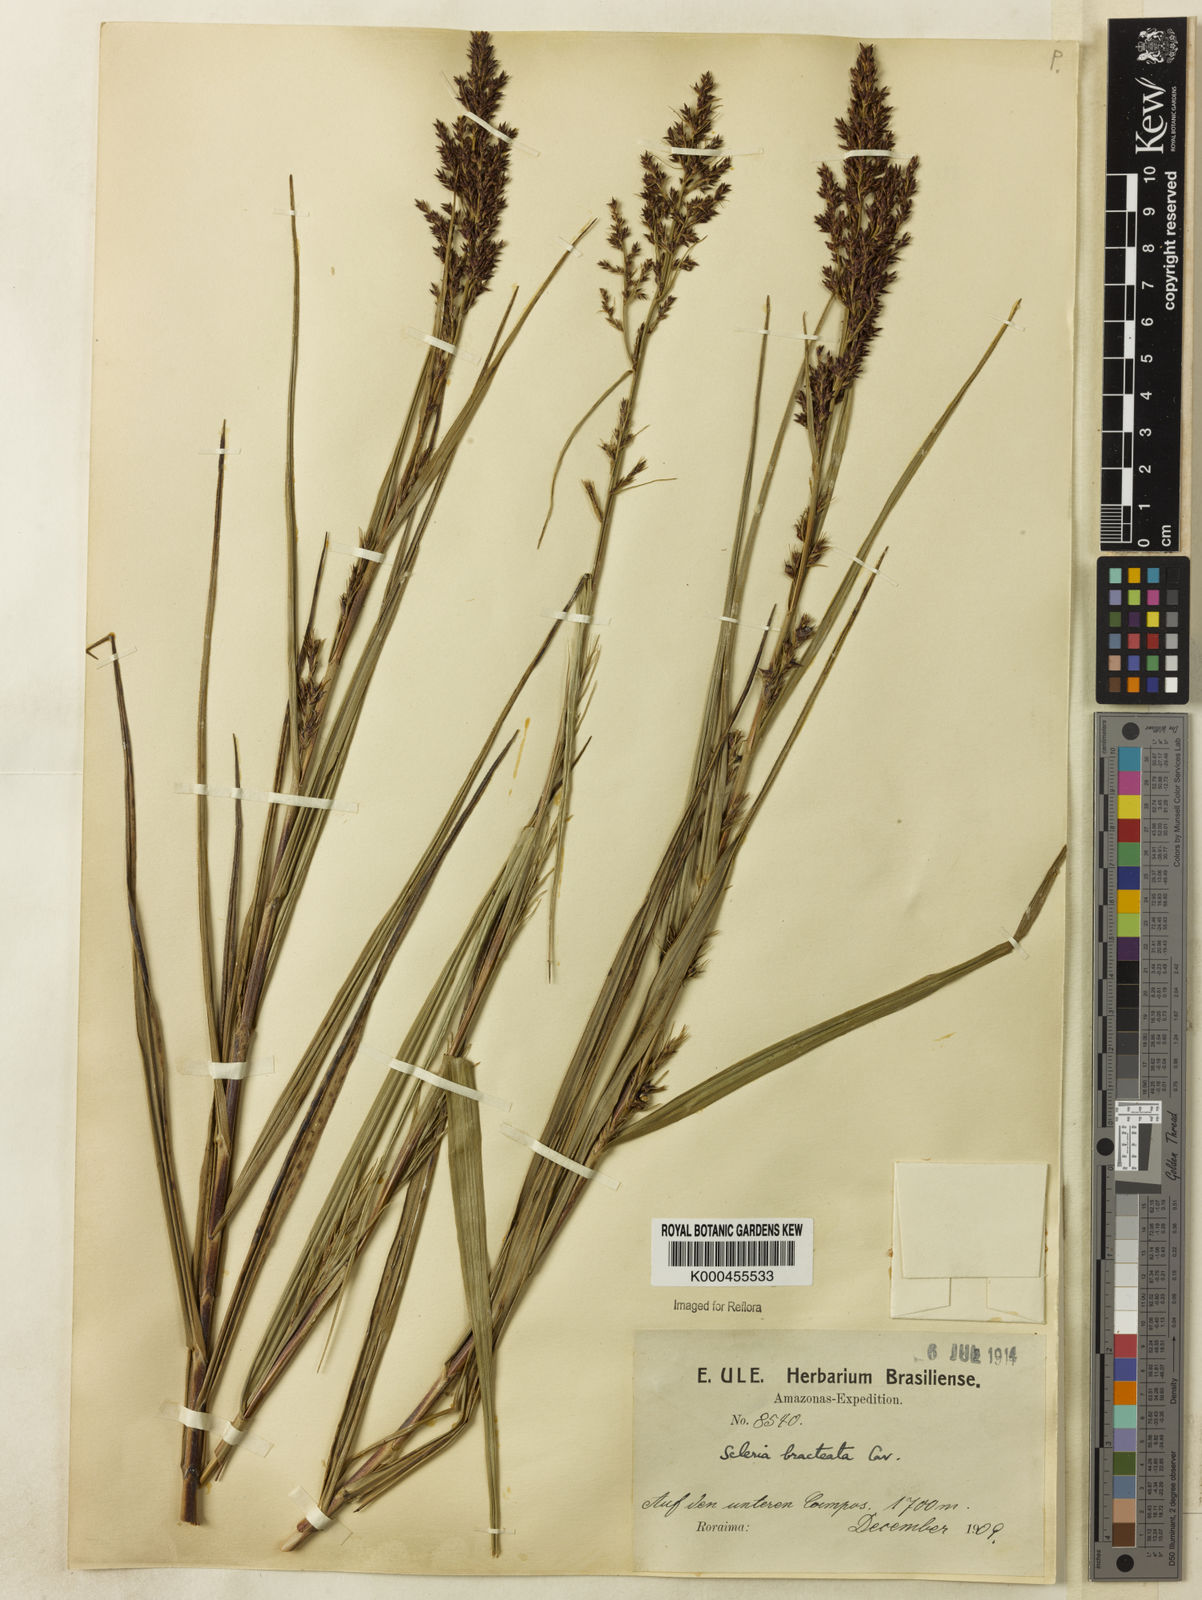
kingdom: Plantae
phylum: Tracheophyta
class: Liliopsida
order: Poales
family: Cyperaceae
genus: Scleria
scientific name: Scleria bracteata
